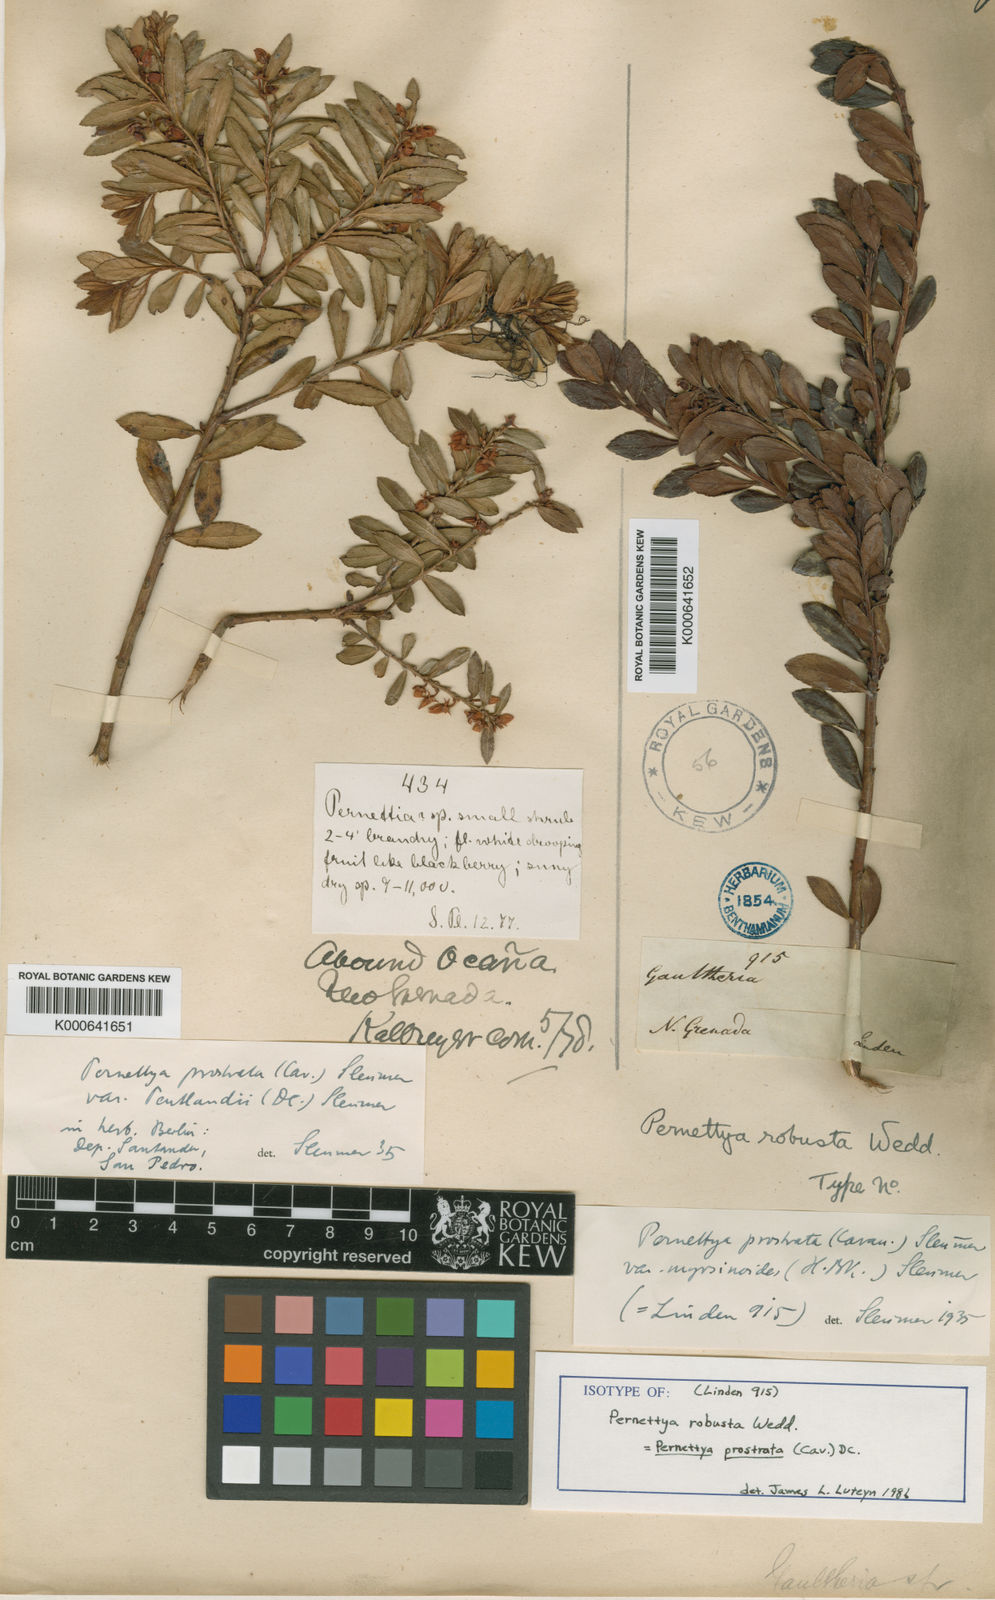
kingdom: Plantae
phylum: Tracheophyta
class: Magnoliopsida
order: Ericales
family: Ericaceae
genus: Gaultheria
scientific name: Gaultheria myrsinoides
